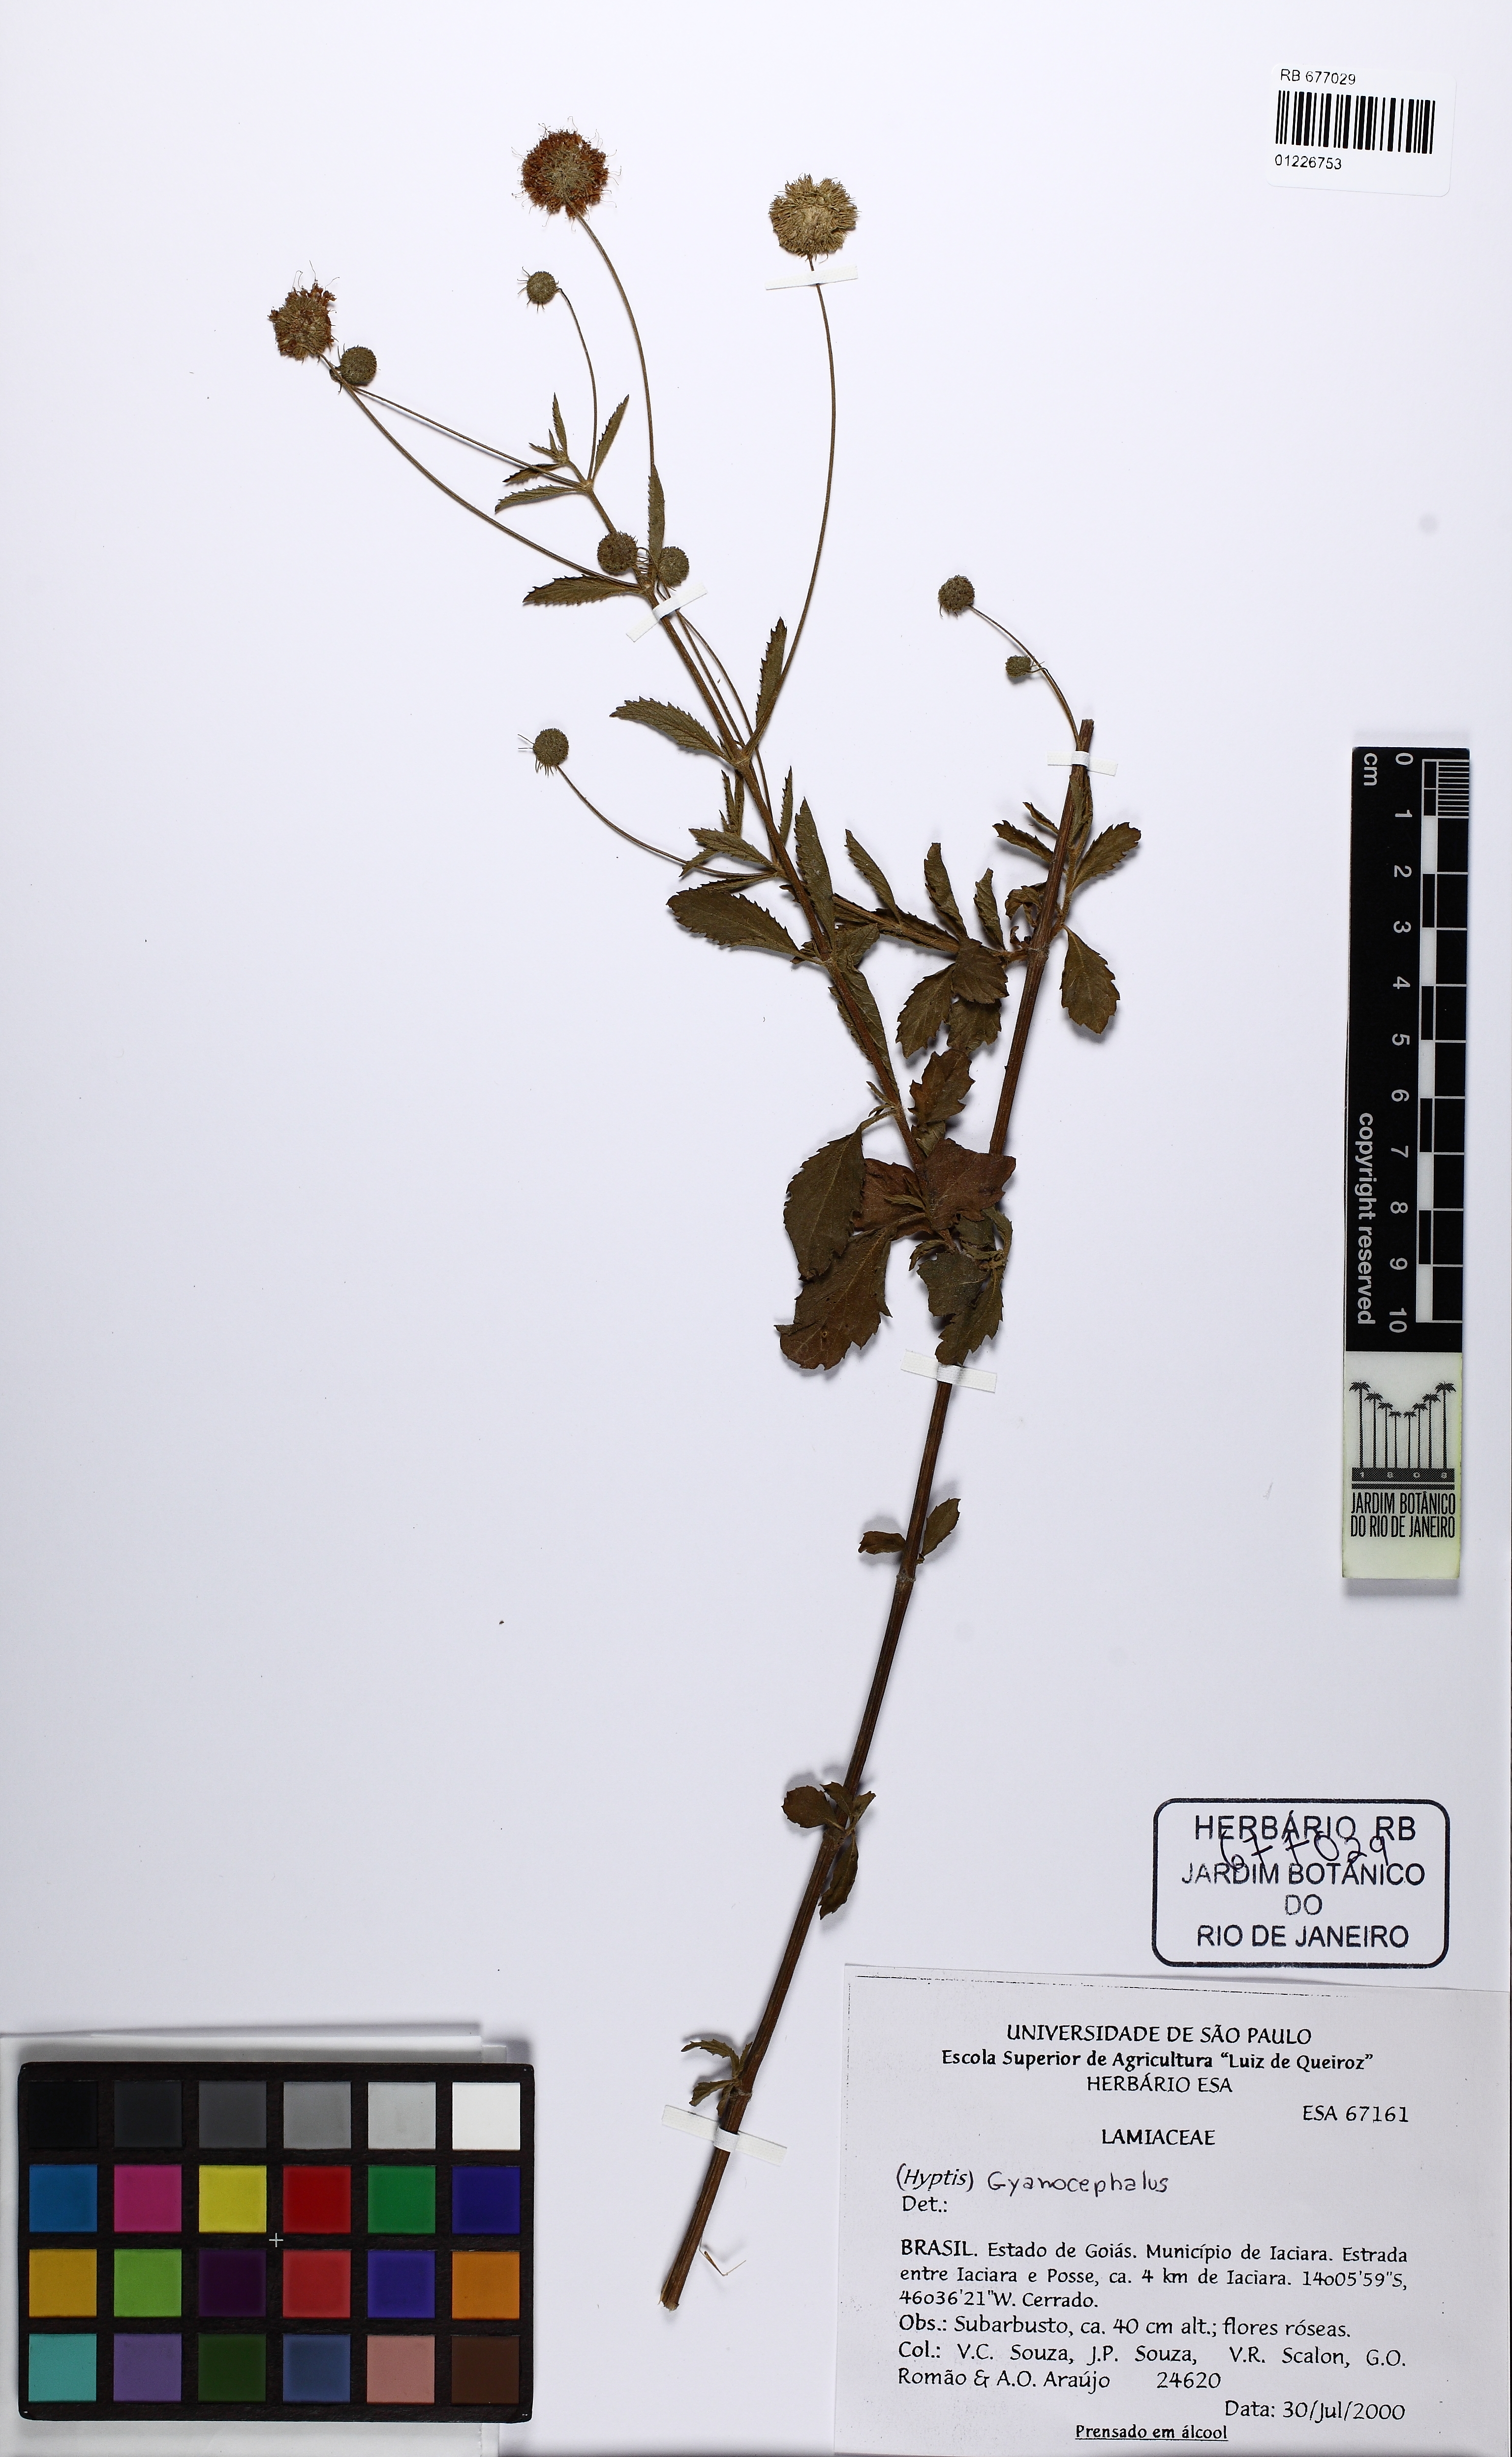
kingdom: Plantae
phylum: Tracheophyta
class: Magnoliopsida
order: Lamiales
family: Lamiaceae
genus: Cyanocephalus
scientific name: Cyanocephalus
